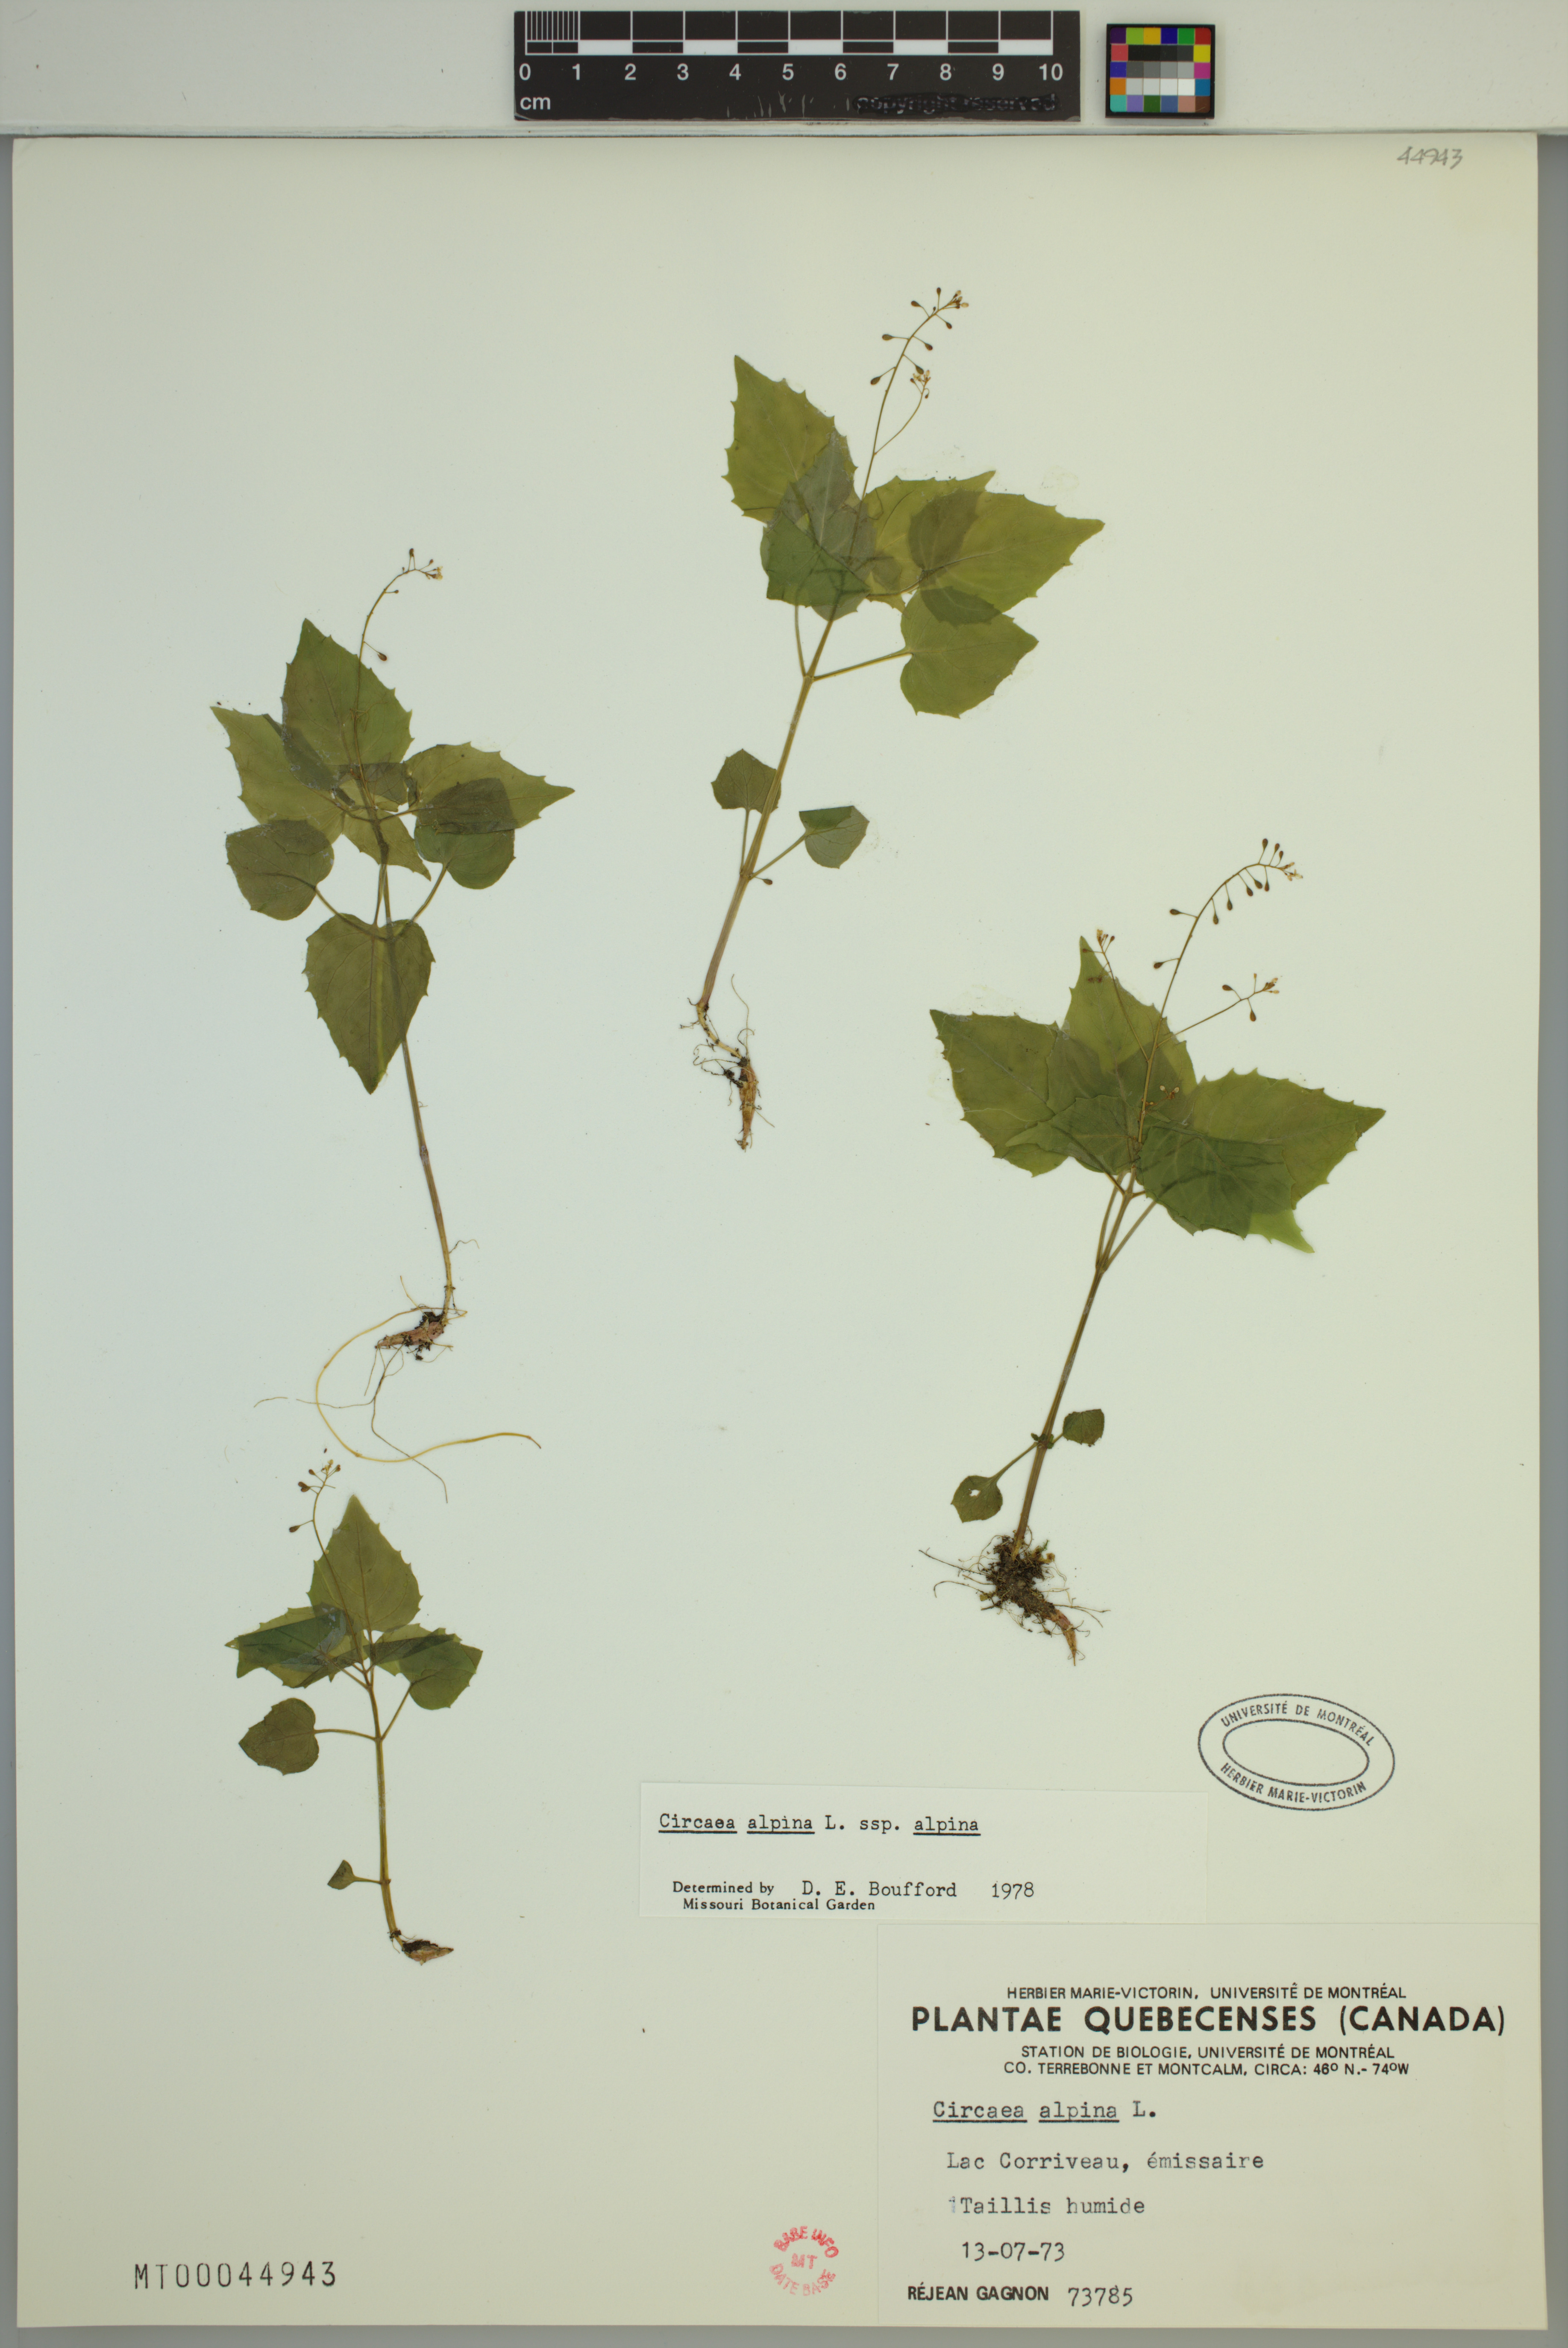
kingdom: Plantae
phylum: Tracheophyta
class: Magnoliopsida
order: Myrtales
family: Onagraceae
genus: Circaea
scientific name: Circaea alpina
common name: Alpine enchanter's-nightshade
